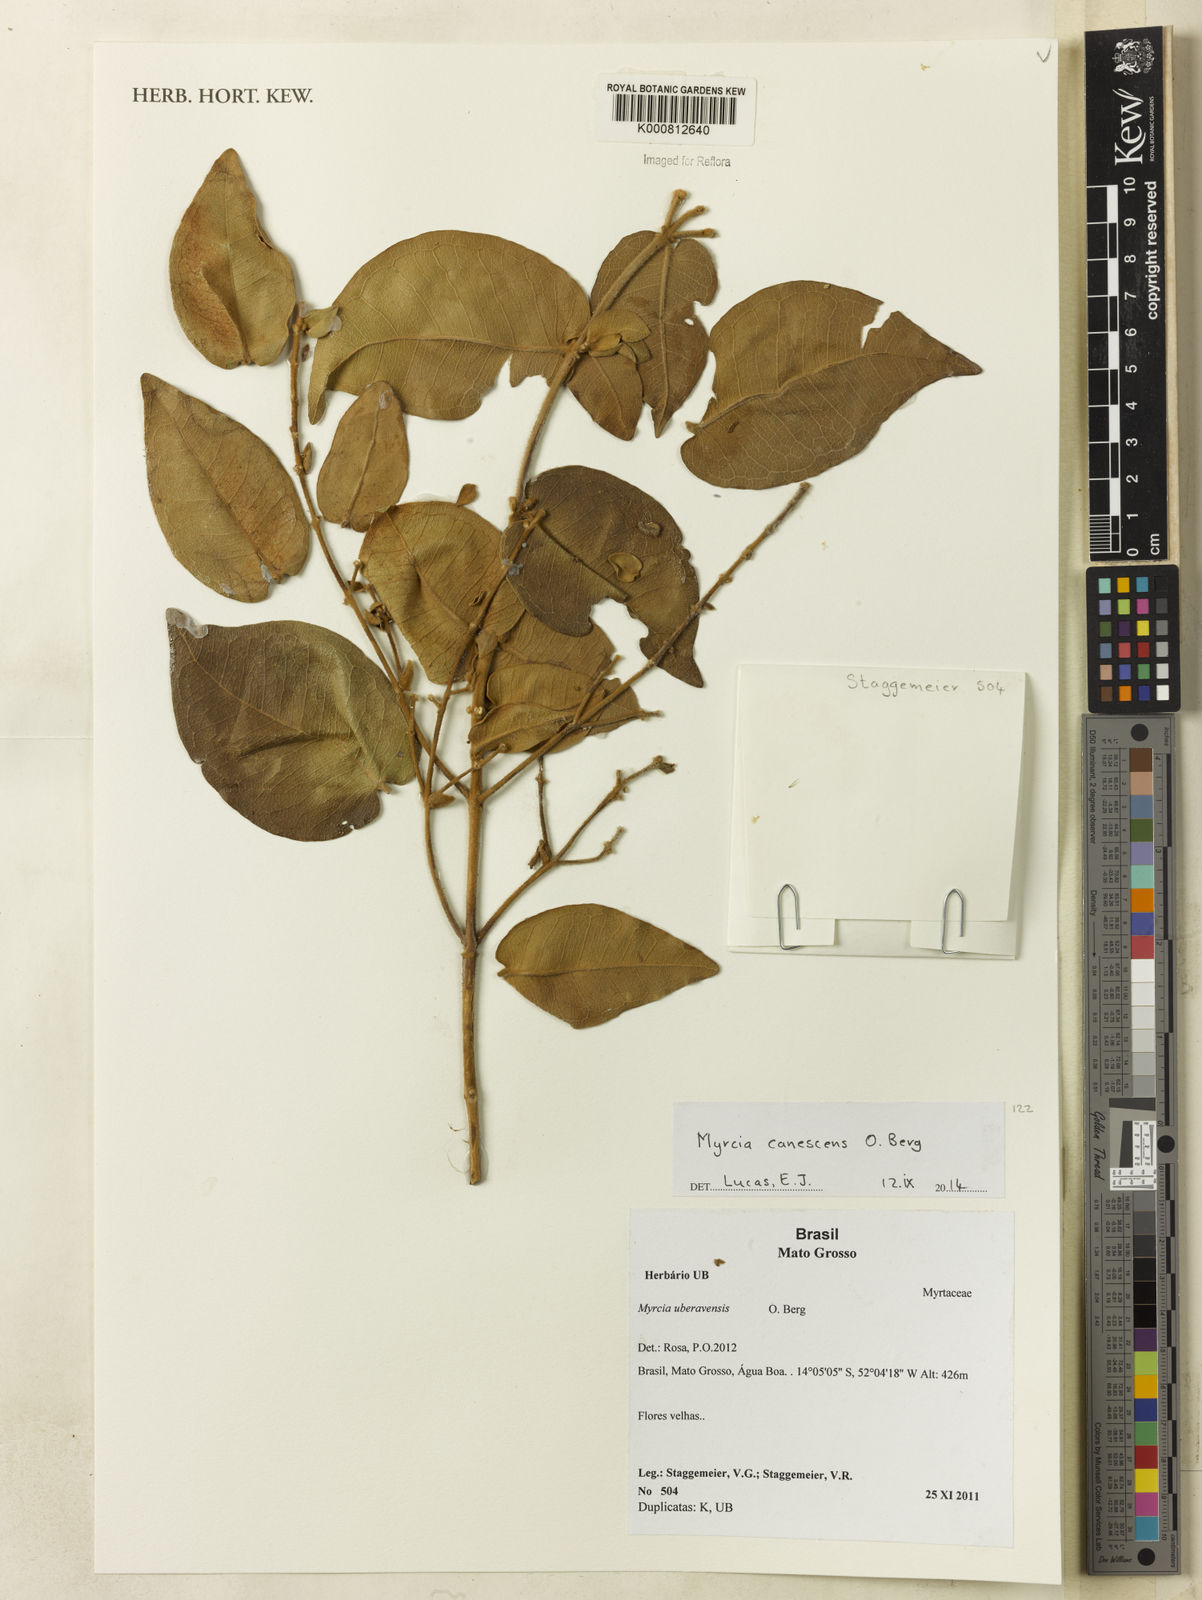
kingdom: Plantae
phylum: Tracheophyta
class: Magnoliopsida
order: Myrtales
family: Myrtaceae
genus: Myrcia
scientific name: Myrcia canescens
